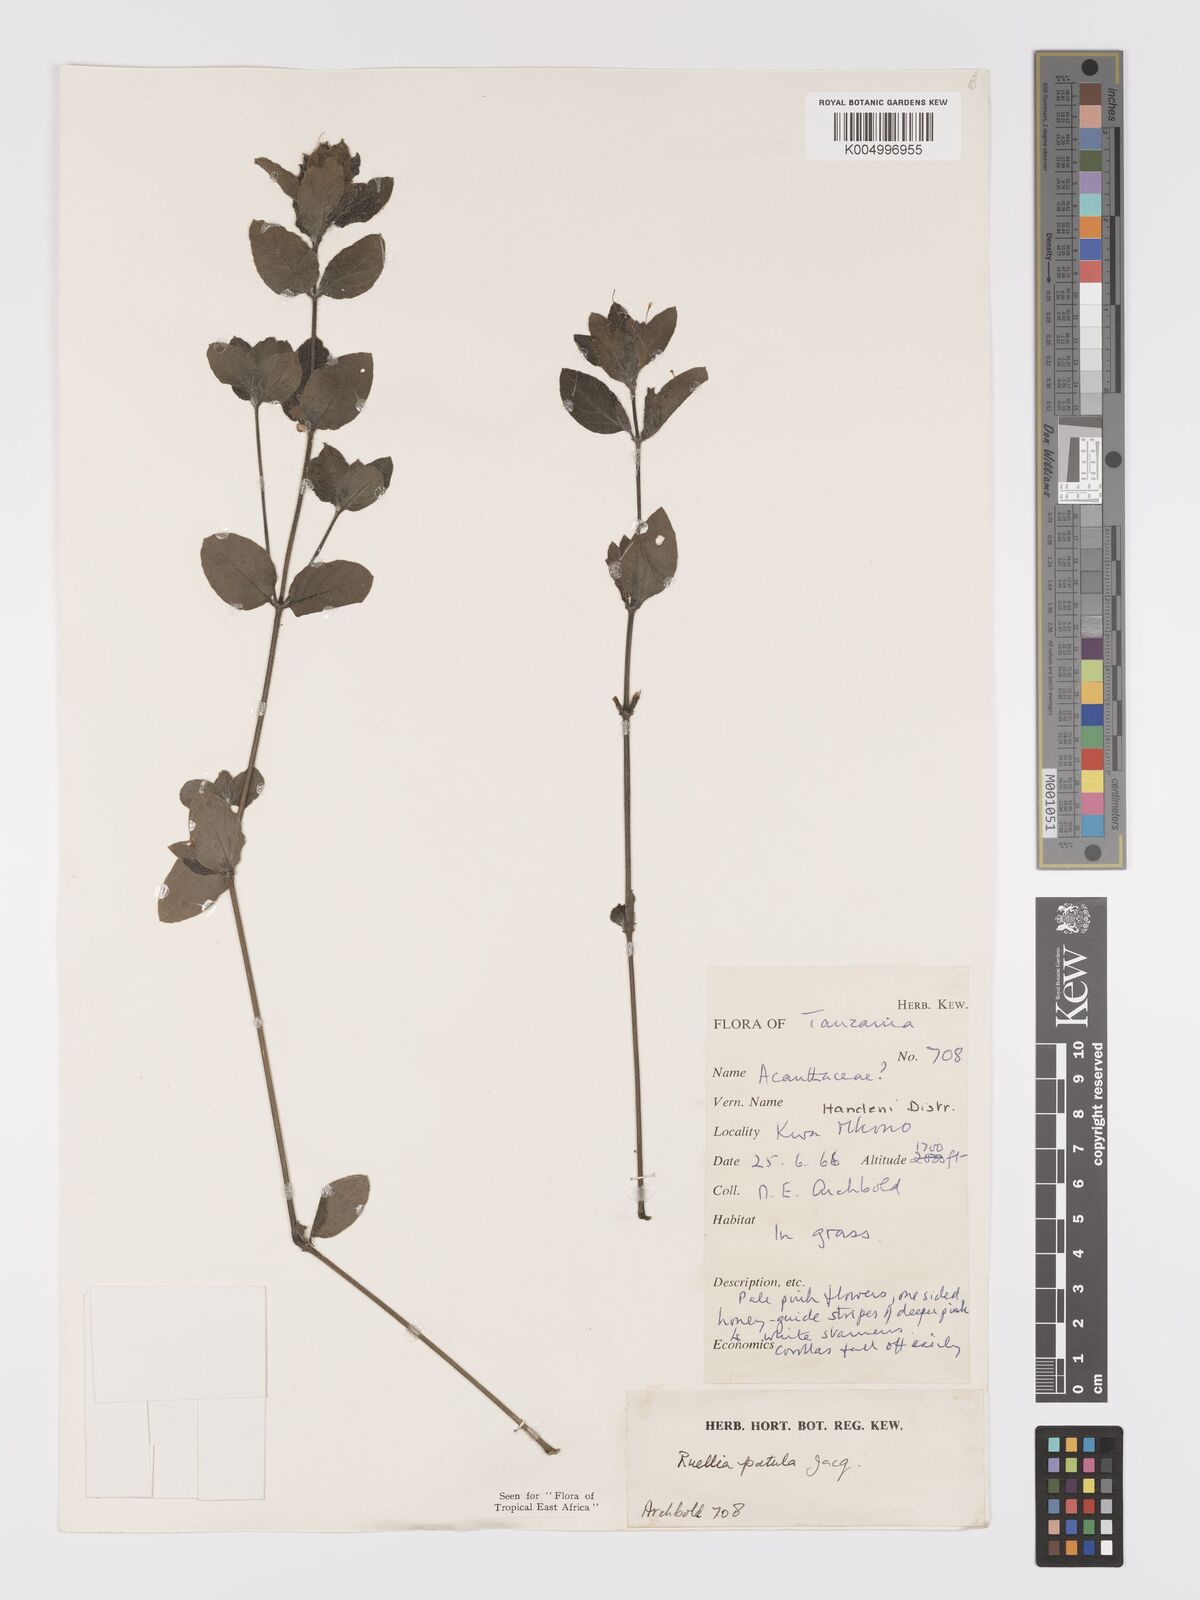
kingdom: Plantae
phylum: Tracheophyta
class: Magnoliopsida
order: Lamiales
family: Acanthaceae
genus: Ruellia
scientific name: Ruellia patula
